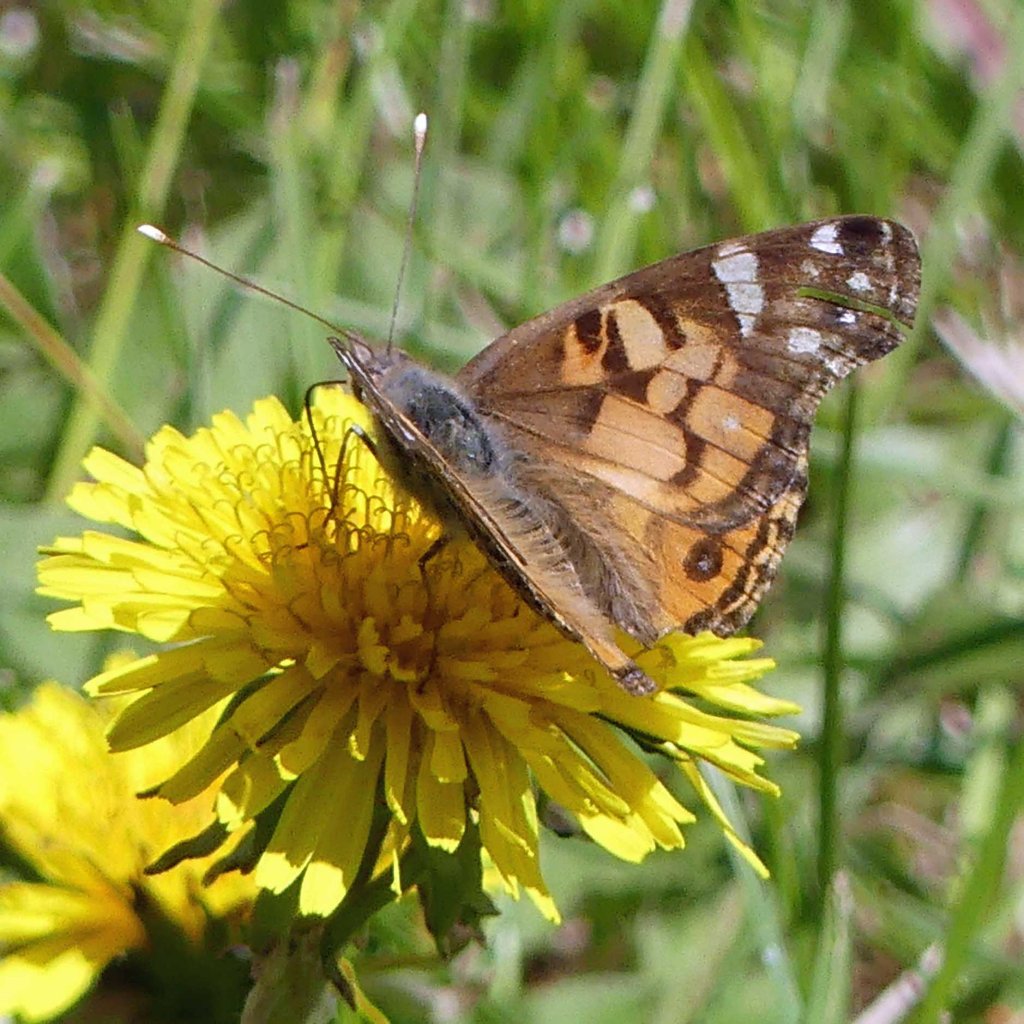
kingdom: Animalia
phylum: Arthropoda
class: Insecta
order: Lepidoptera
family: Nymphalidae
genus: Vanessa
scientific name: Vanessa virginiensis
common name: American Lady
